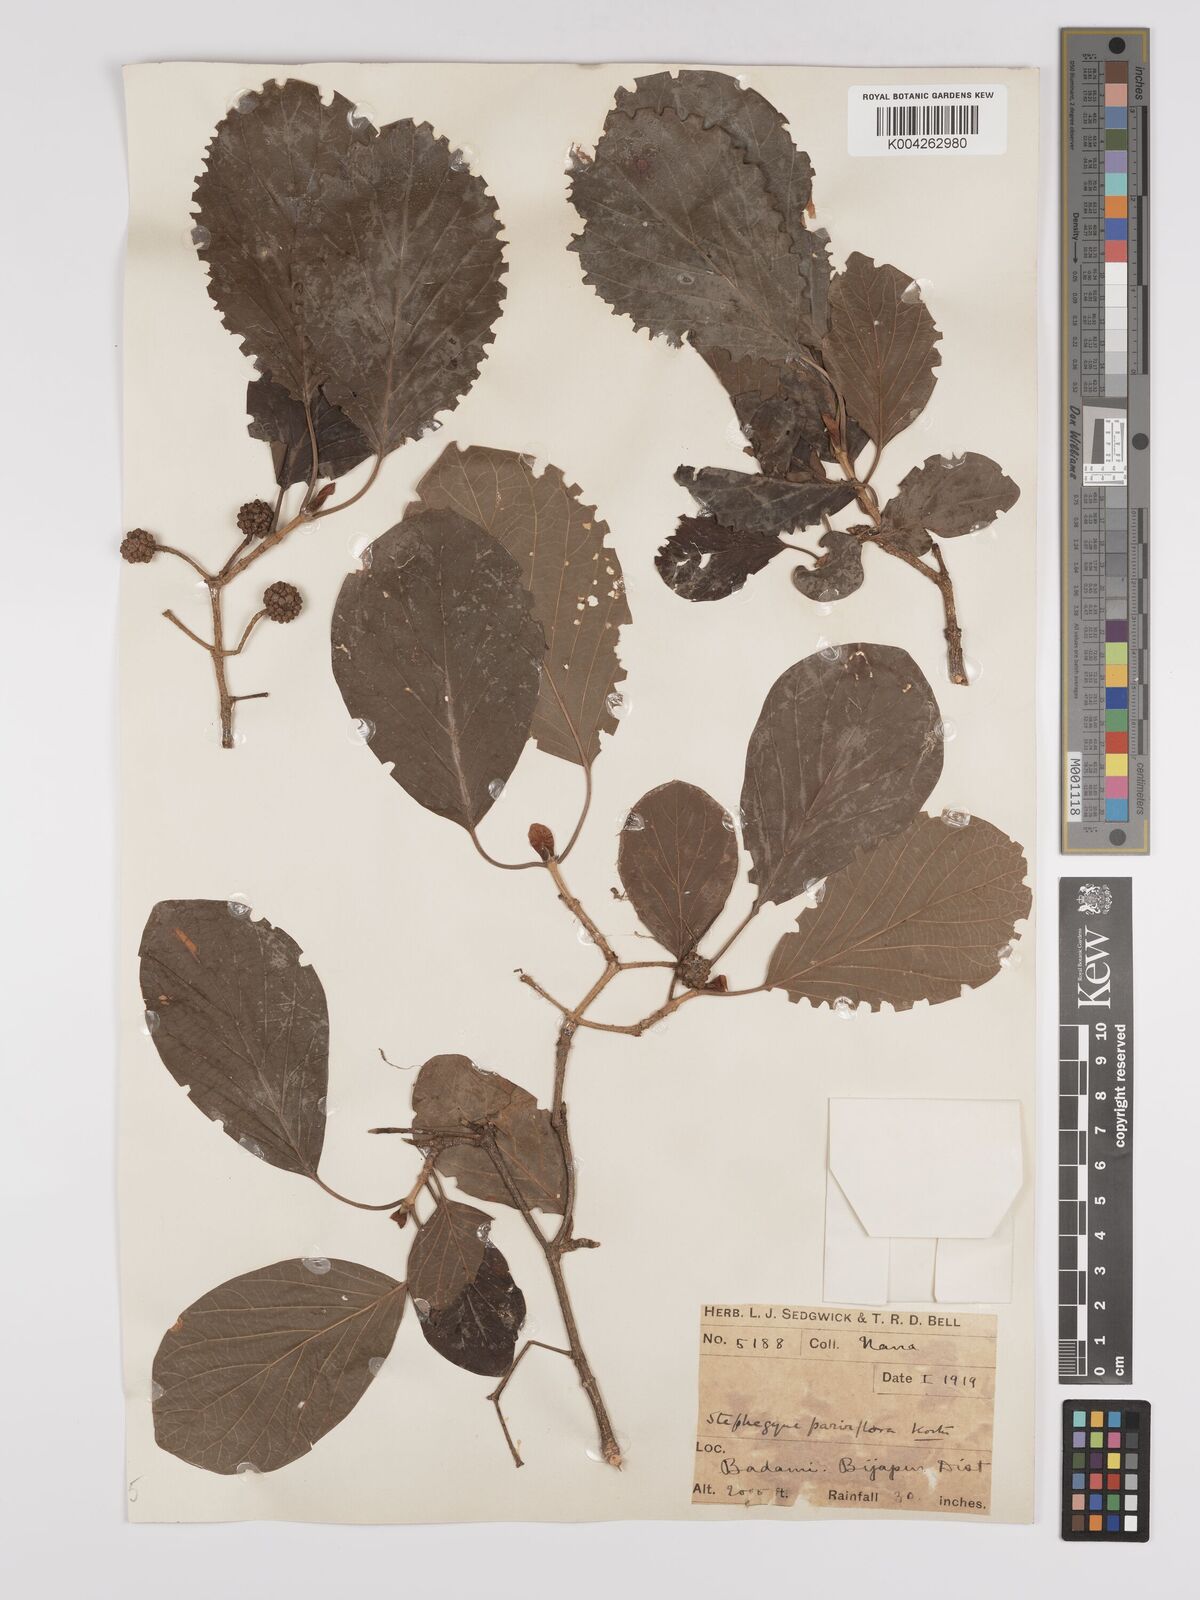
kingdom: Plantae
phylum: Tracheophyta
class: Magnoliopsida
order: Gentianales
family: Rubiaceae
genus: Mitragyna
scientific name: Mitragyna parvifolia
